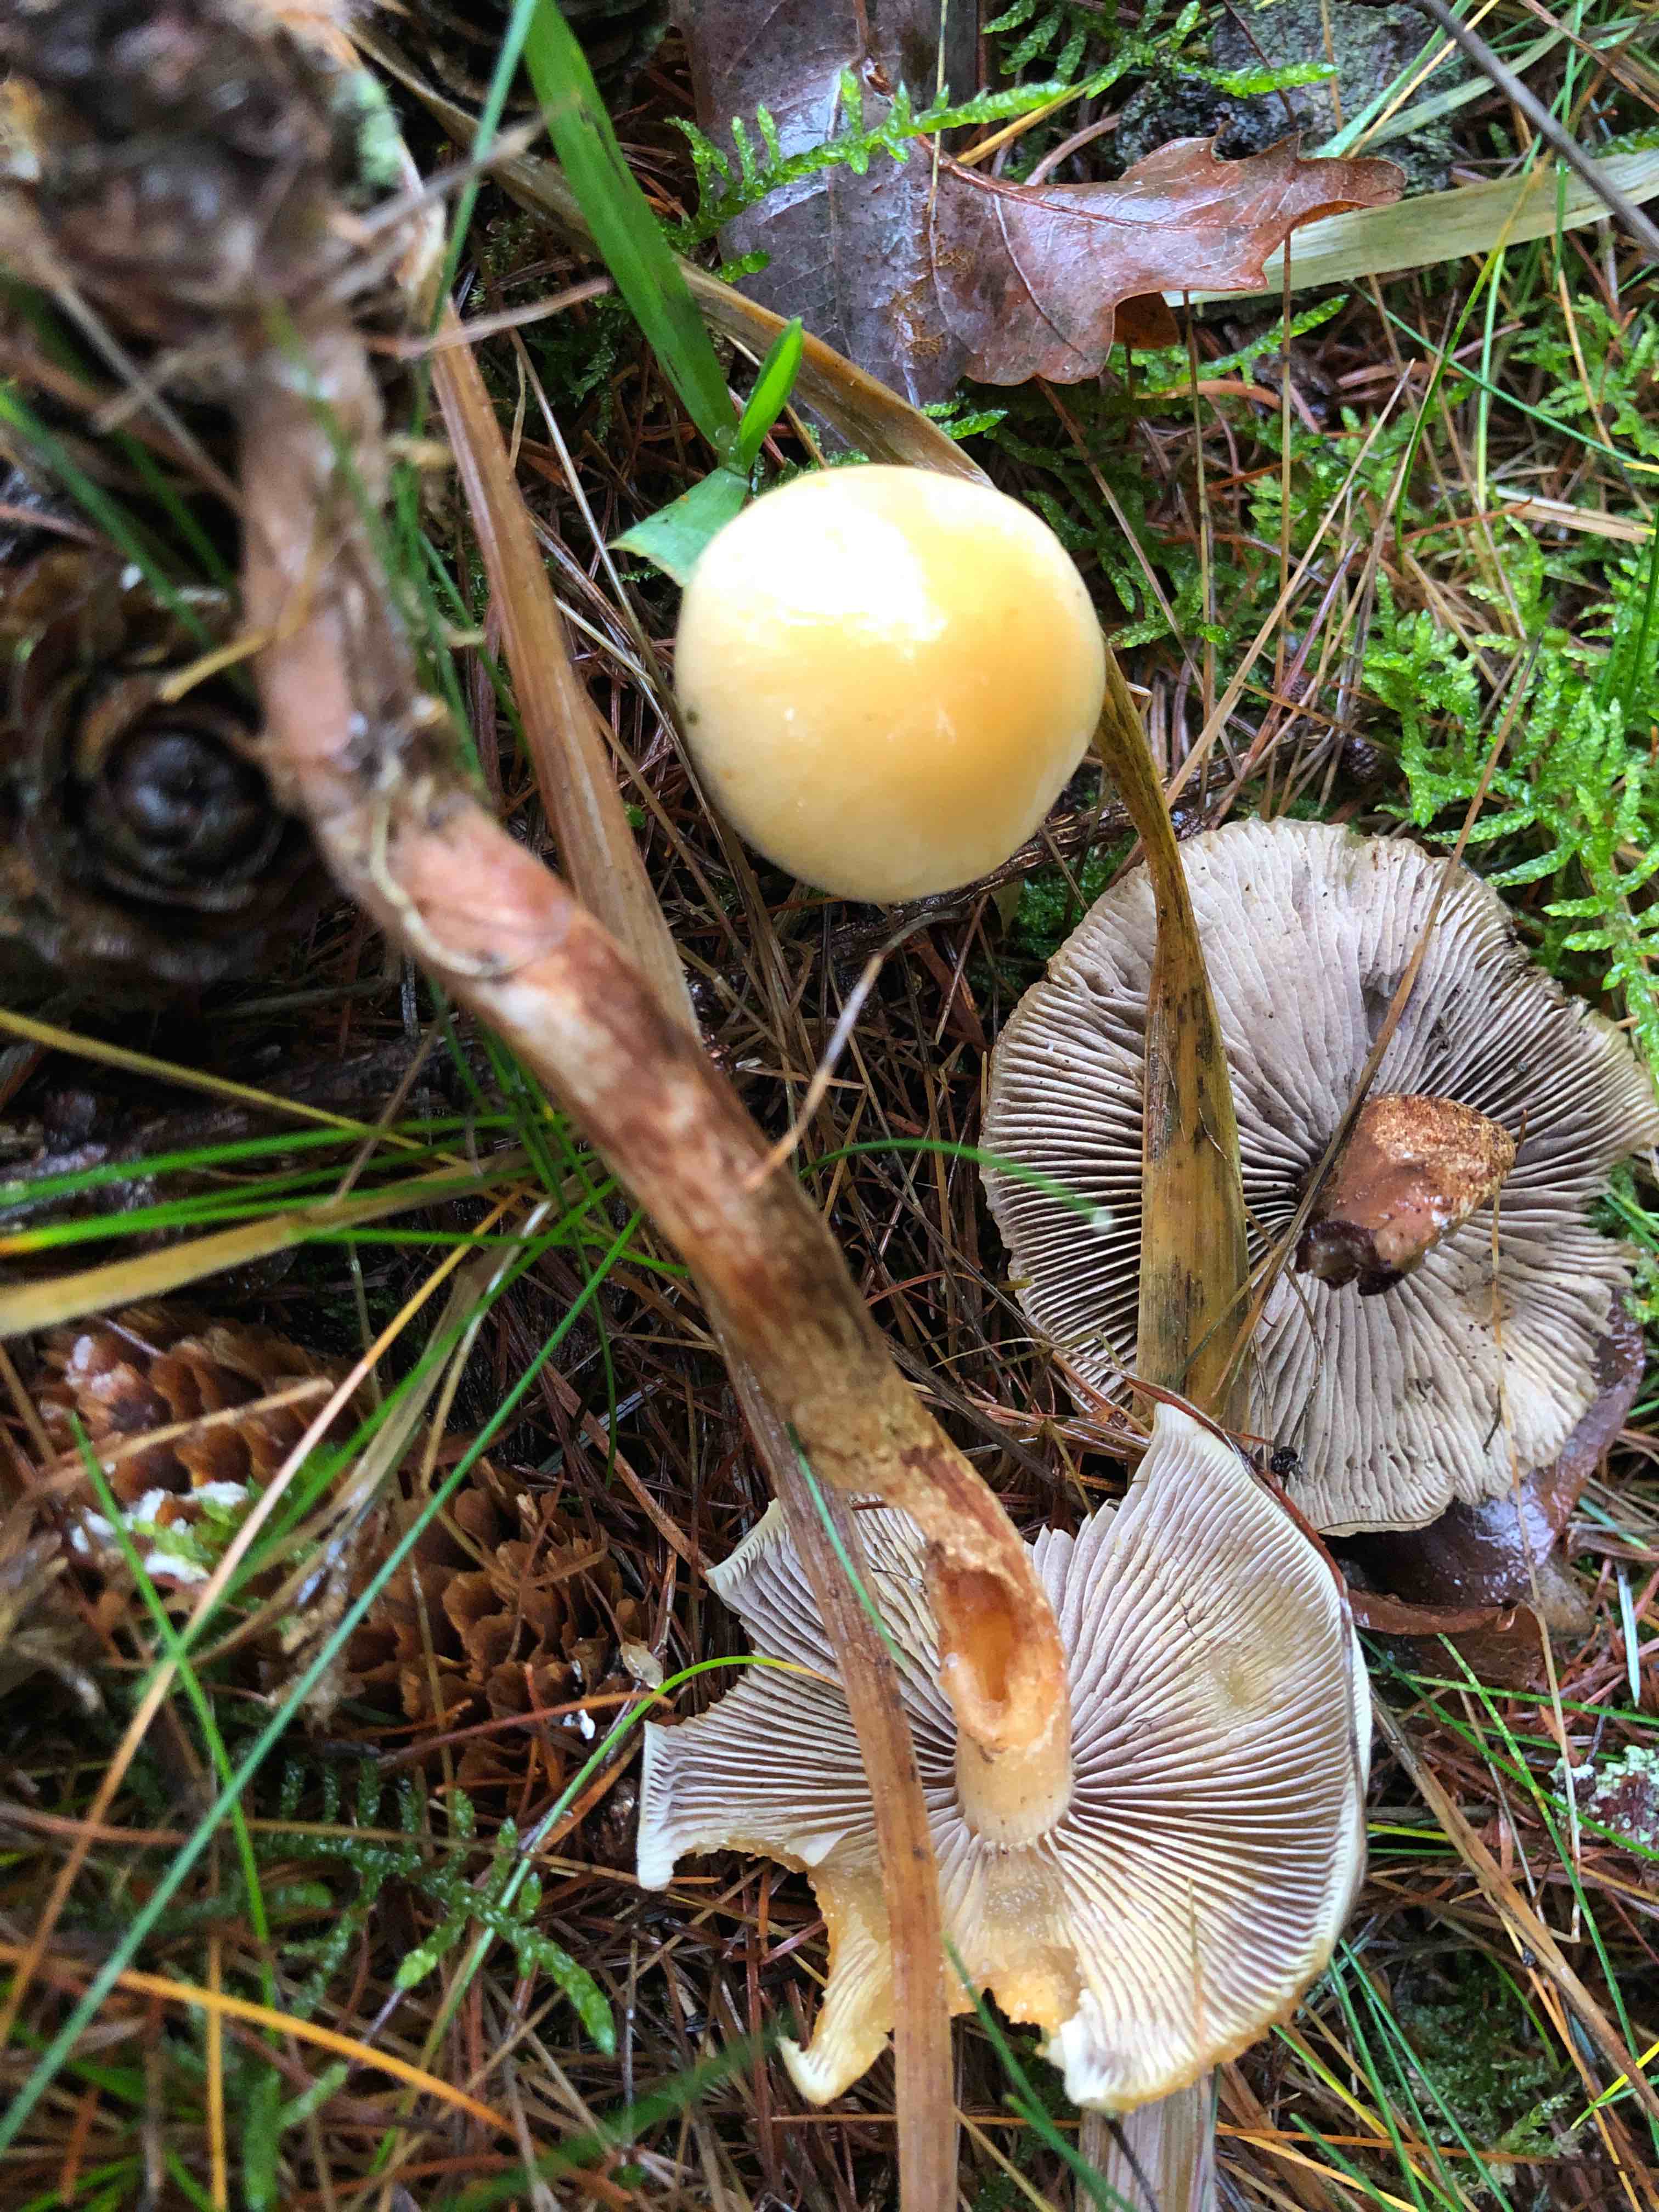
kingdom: Fungi
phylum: Basidiomycota
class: Agaricomycetes
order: Agaricales
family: Strophariaceae
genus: Hypholoma
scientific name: Hypholoma capnoides
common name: gran-svovlhat
